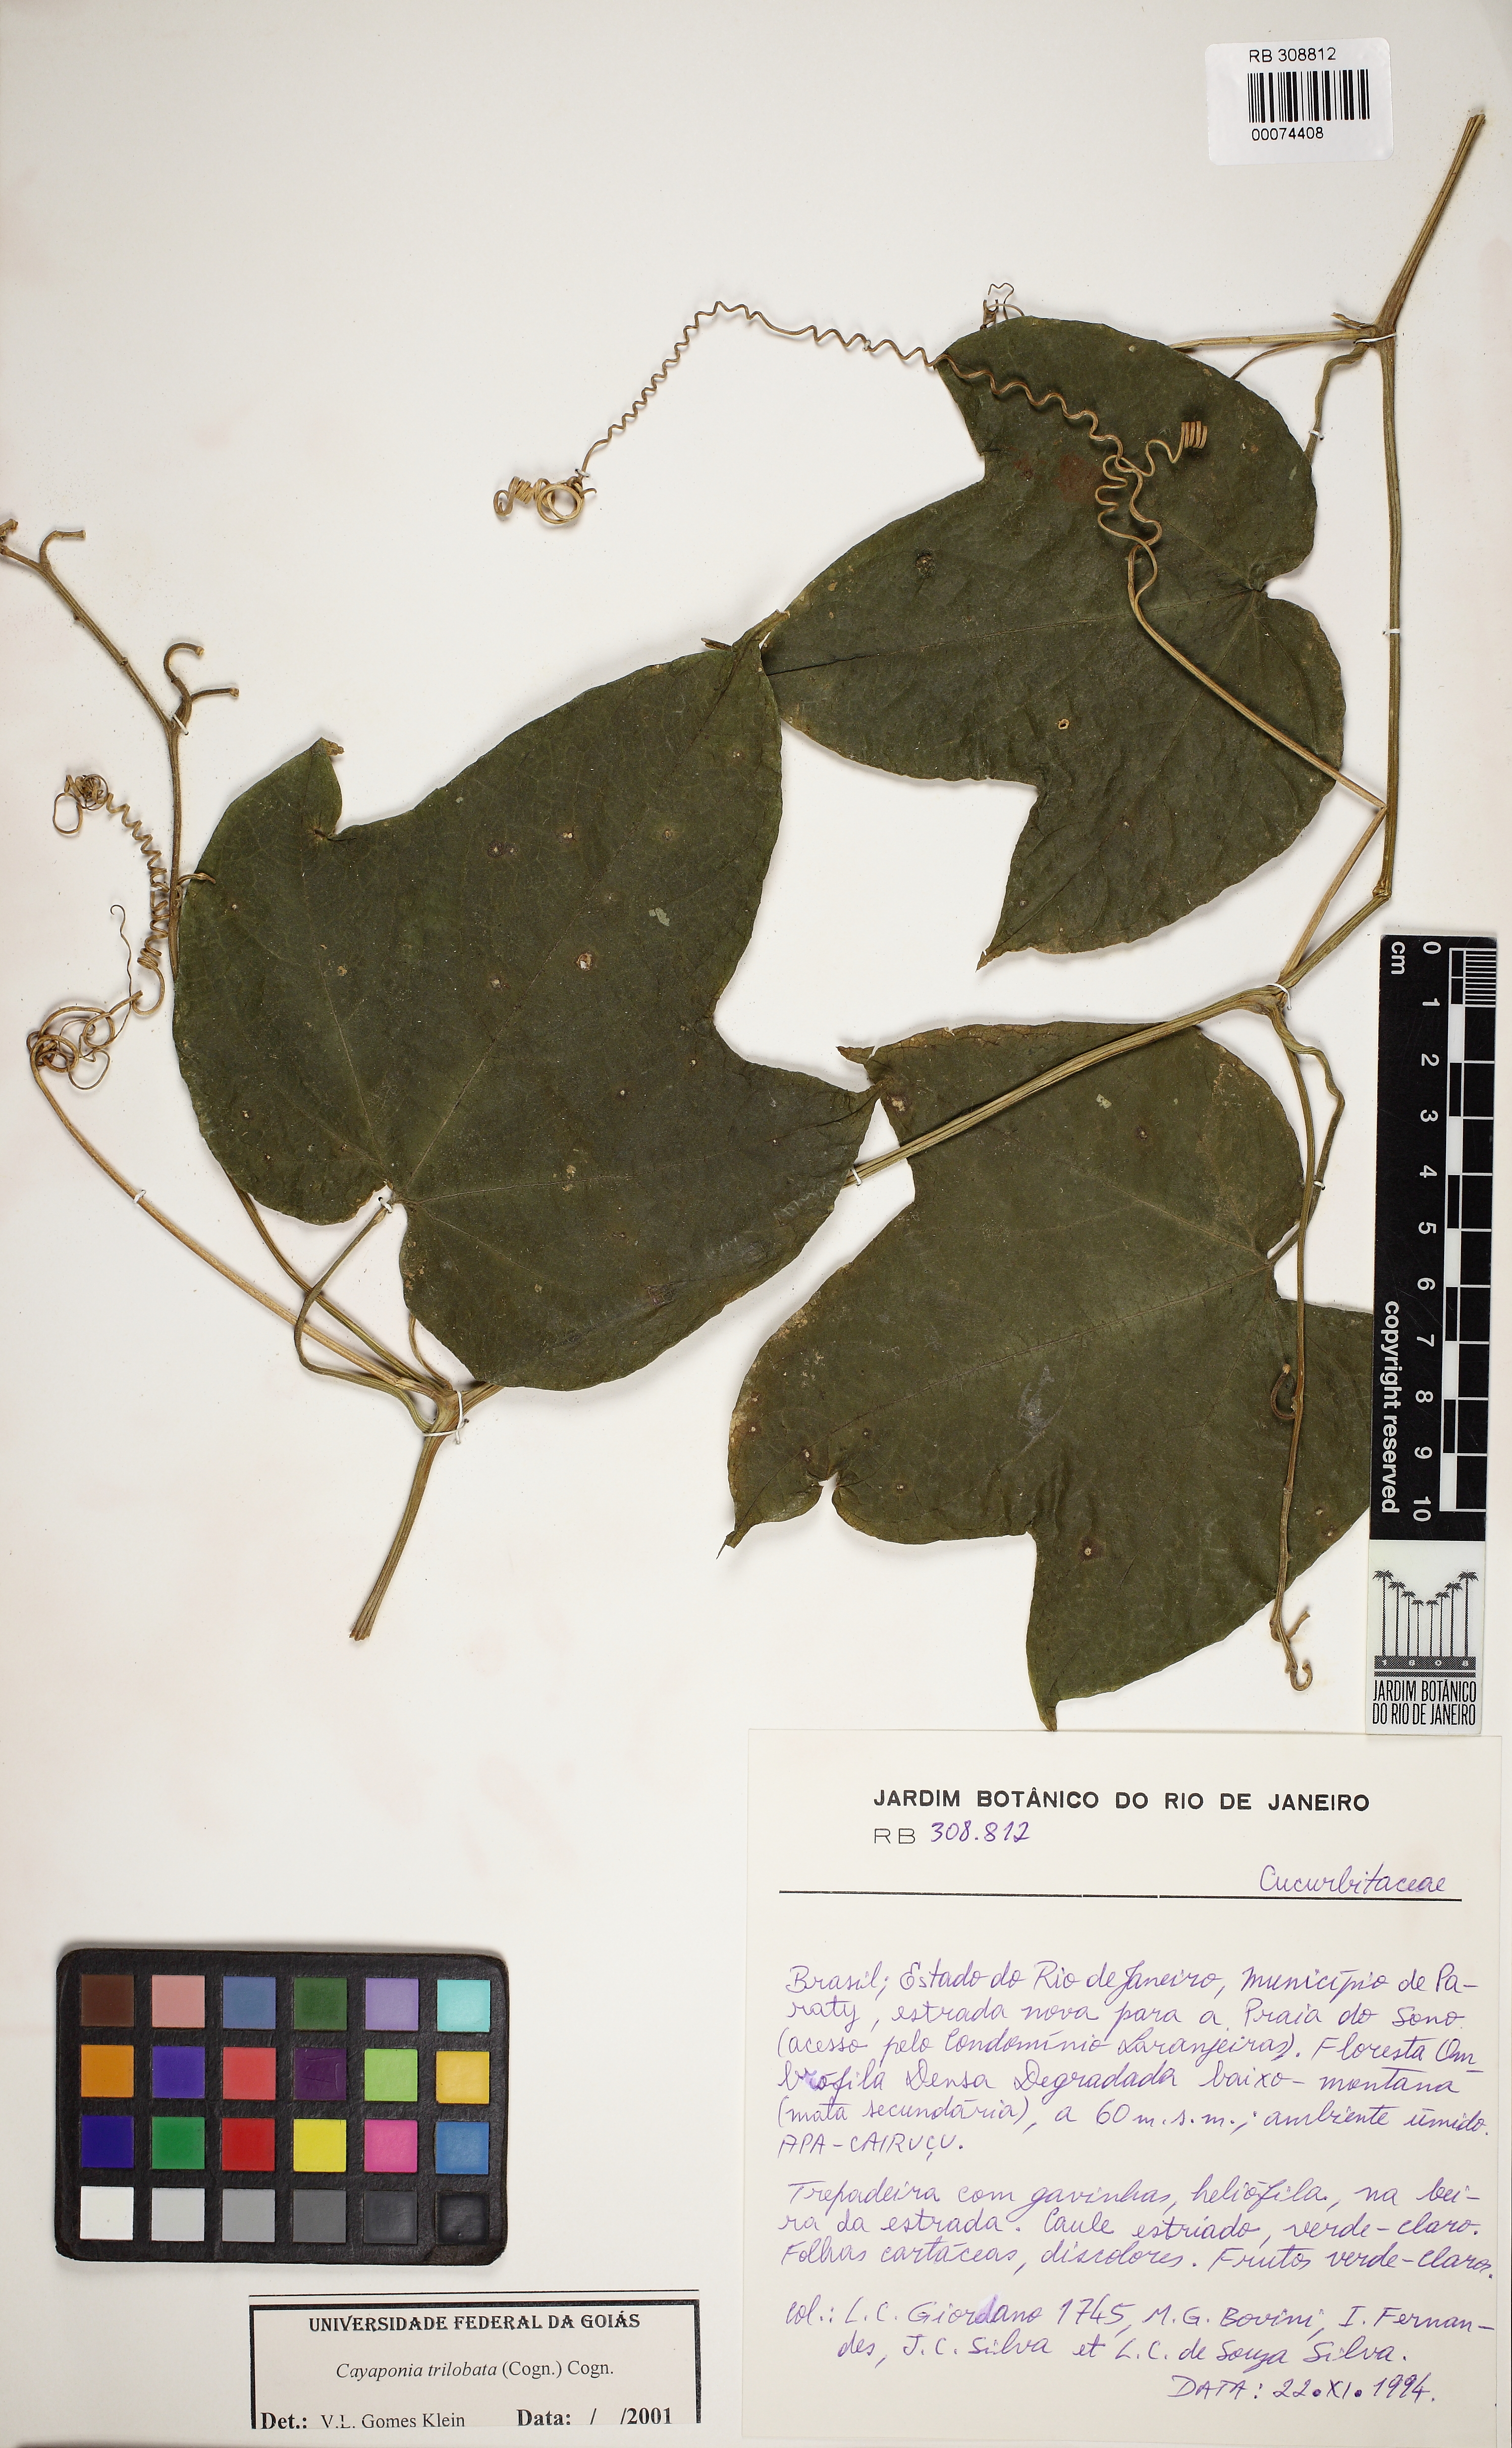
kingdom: Plantae
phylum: Tracheophyta
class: Magnoliopsida
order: Cucurbitales
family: Cucurbitaceae
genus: Cayaponia
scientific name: Cayaponia trilobata
